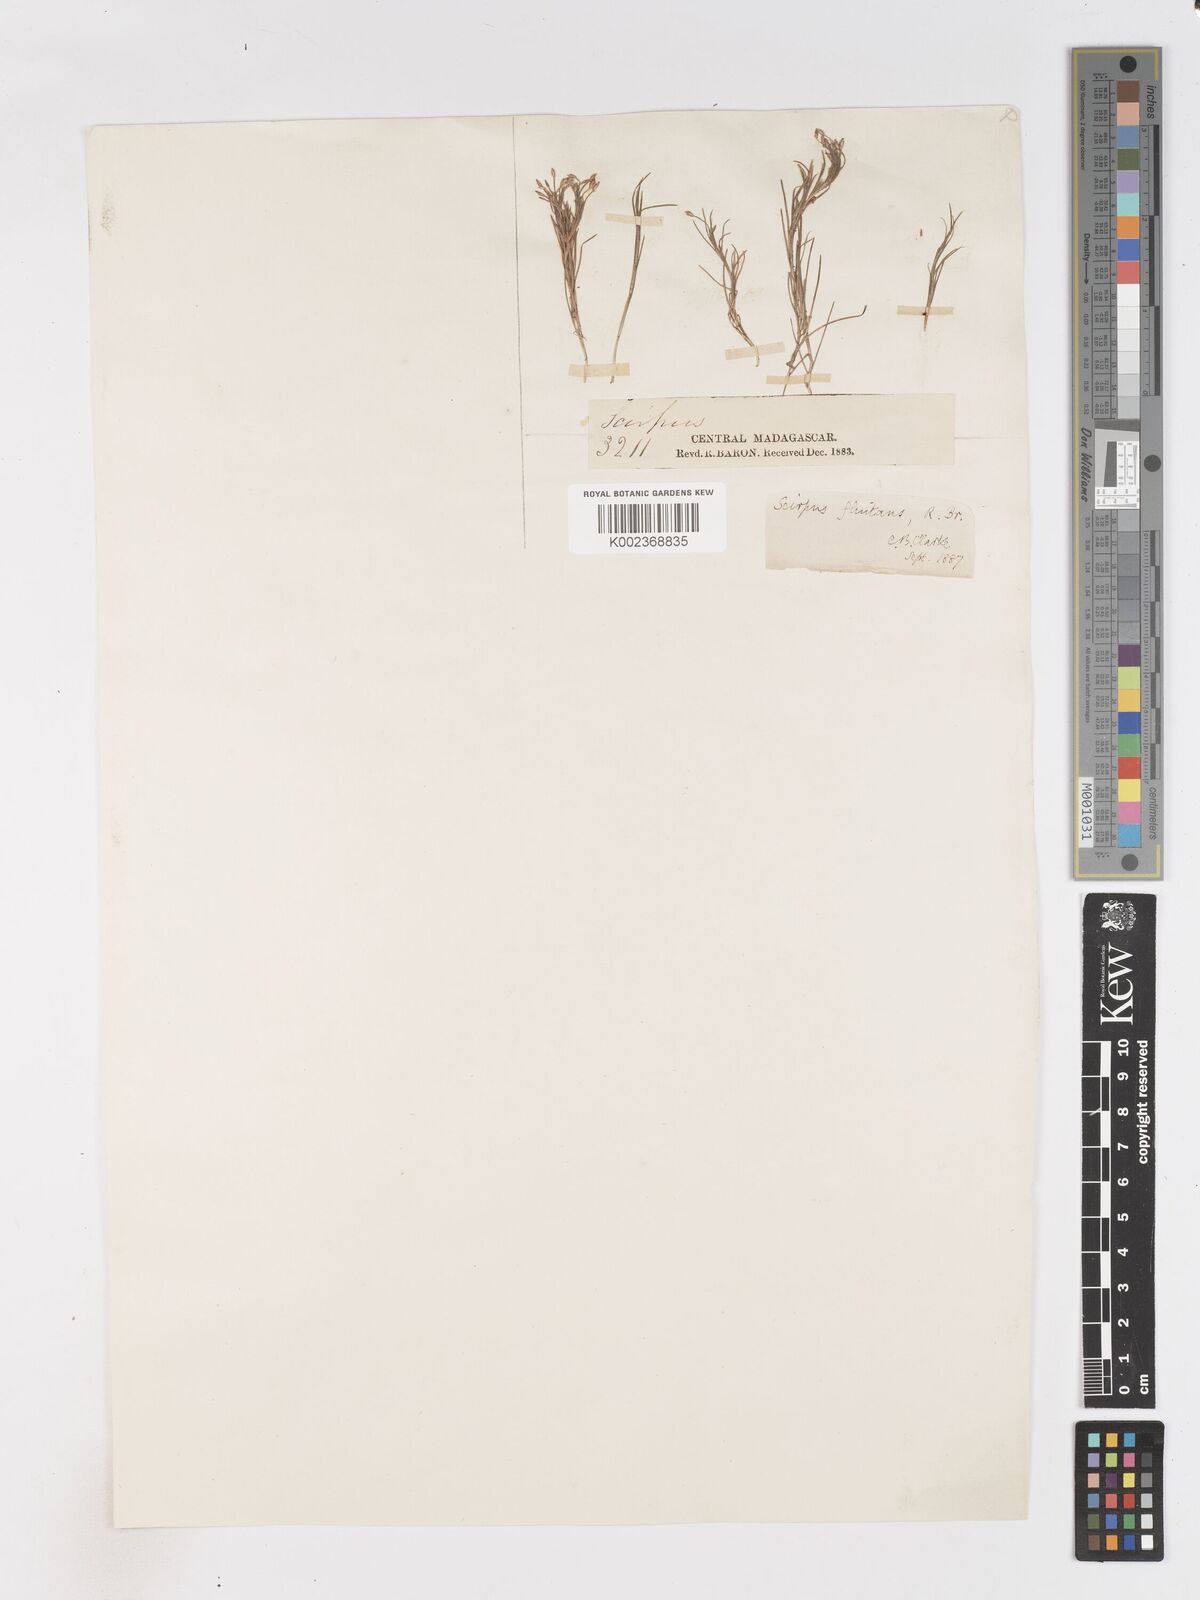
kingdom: Plantae
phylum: Tracheophyta
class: Liliopsida
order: Poales
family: Cyperaceae
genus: Isolepis
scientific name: Isolepis fluitans
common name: Floating club-rush
